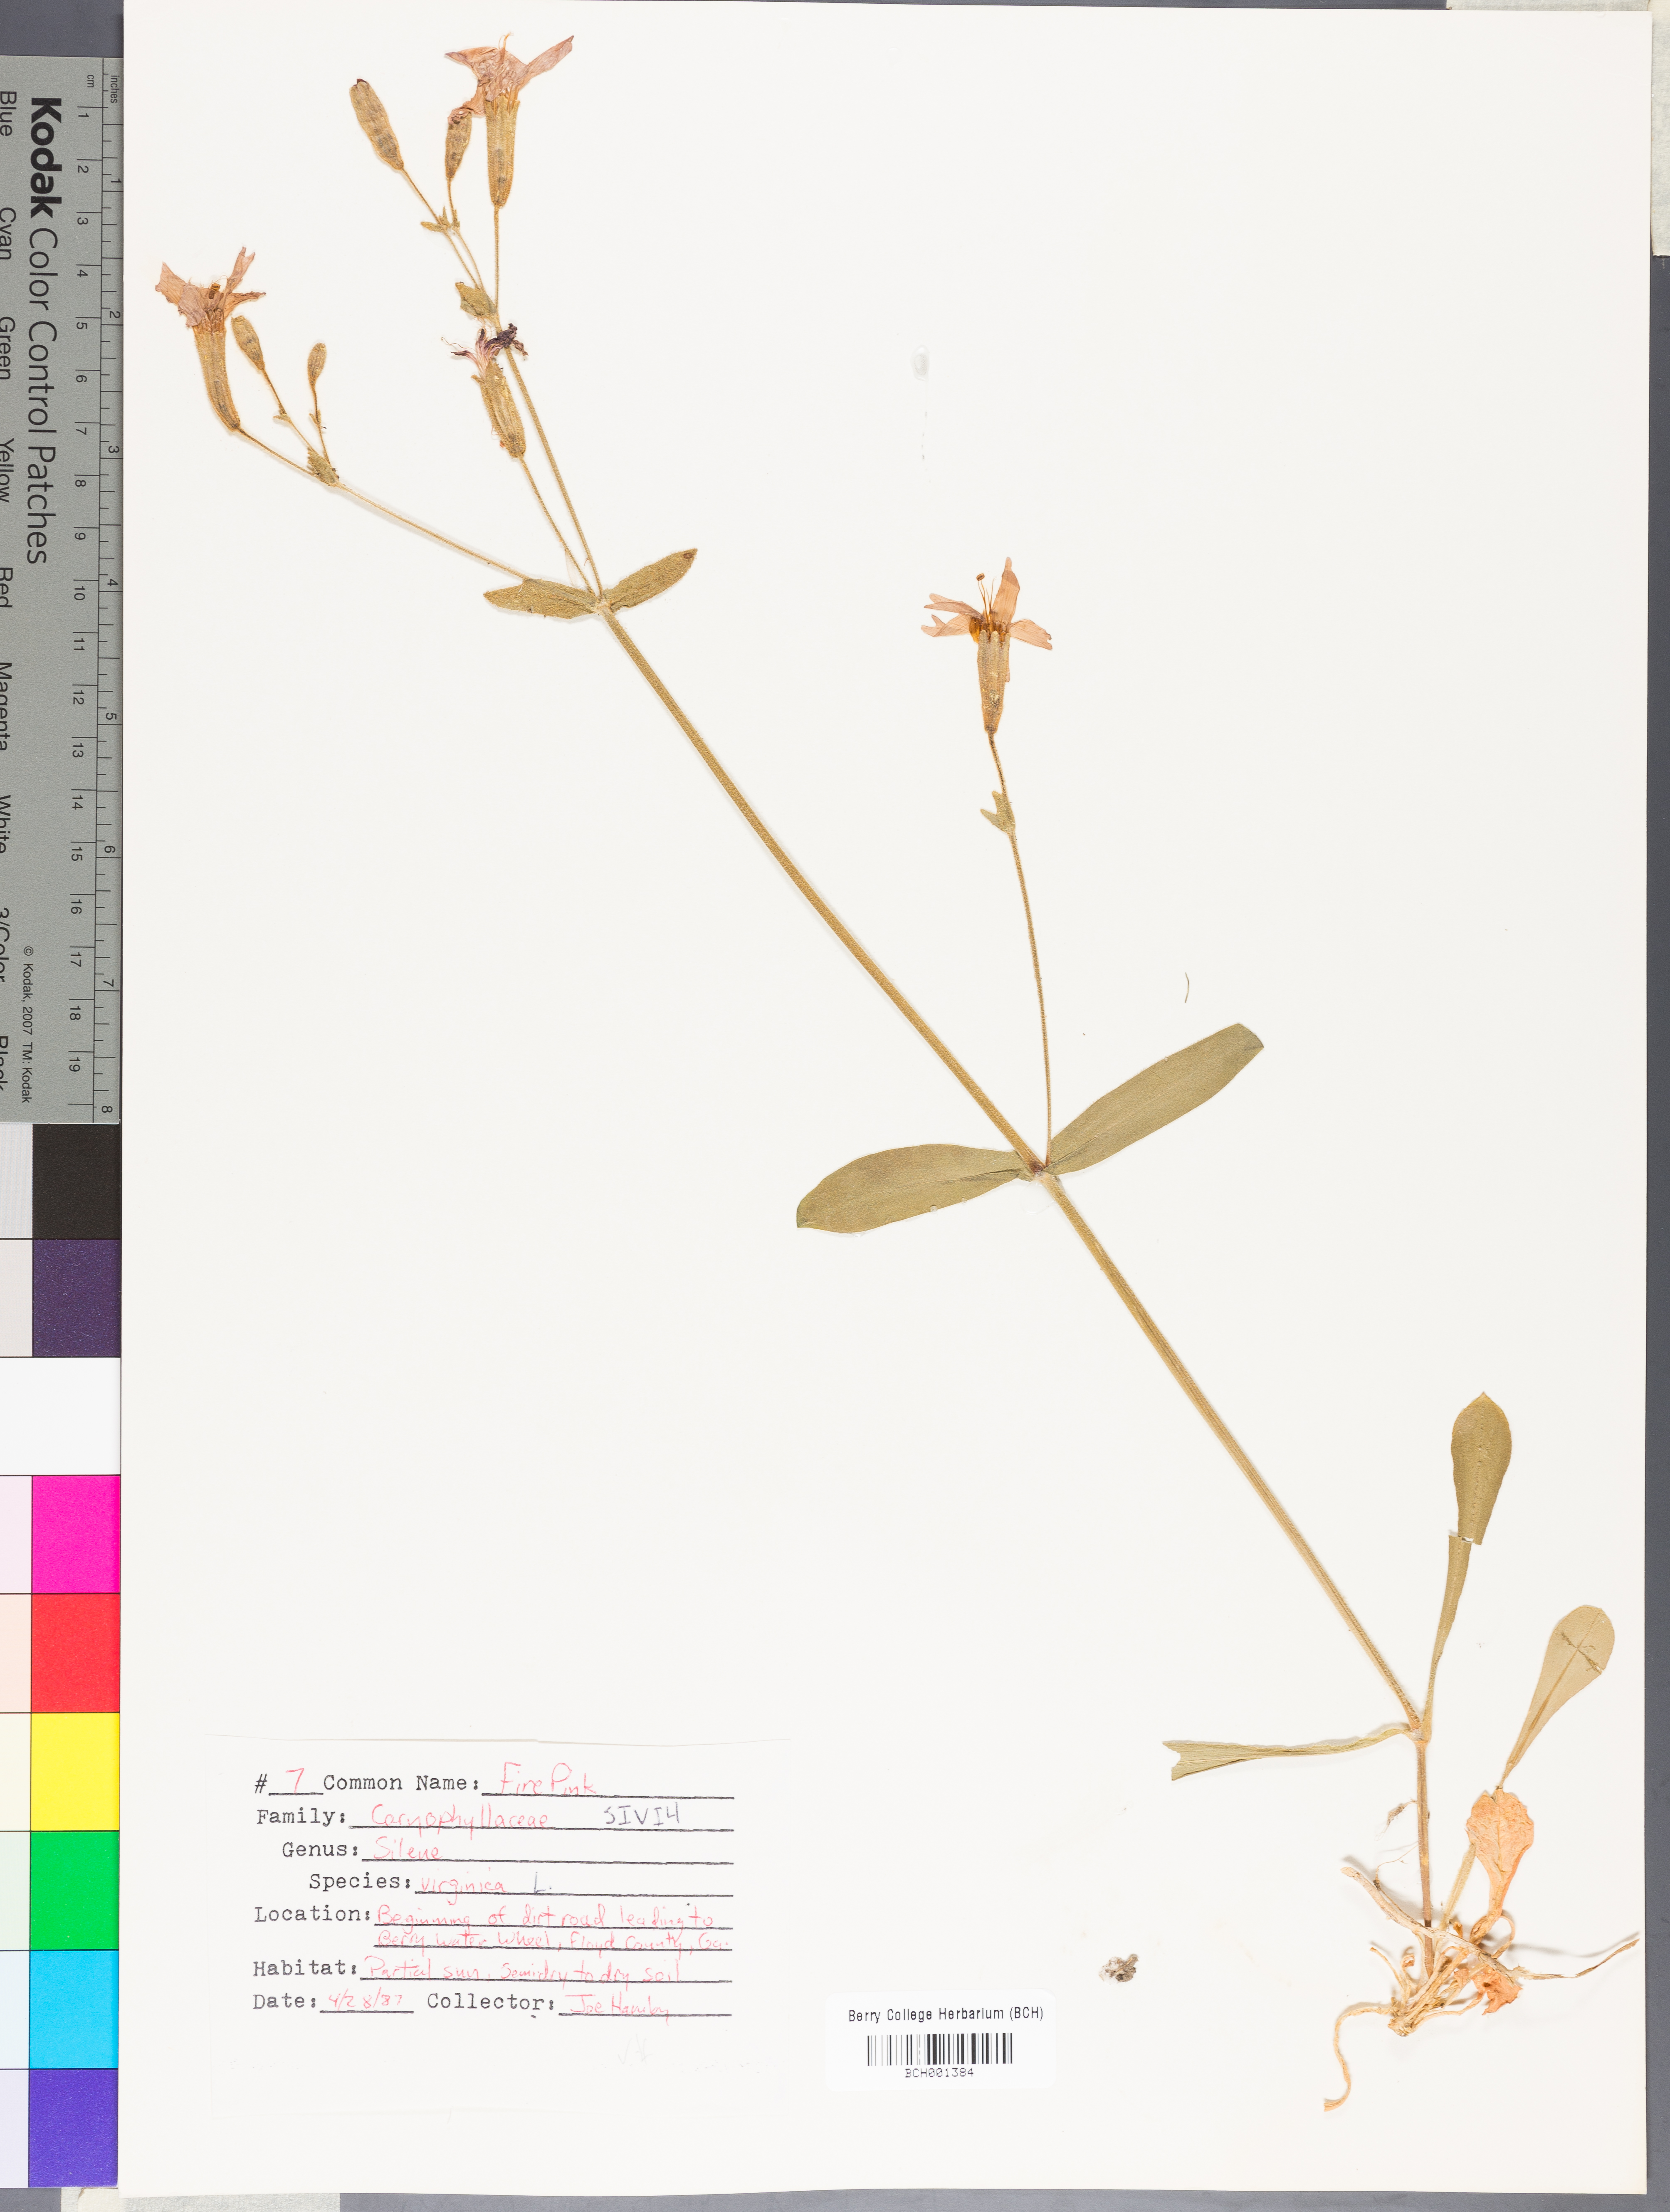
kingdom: Plantae
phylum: Tracheophyta
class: Magnoliopsida
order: Caryophyllales
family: Caryophyllaceae
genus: Silene
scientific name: Silene virginica
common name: Fire-pink
